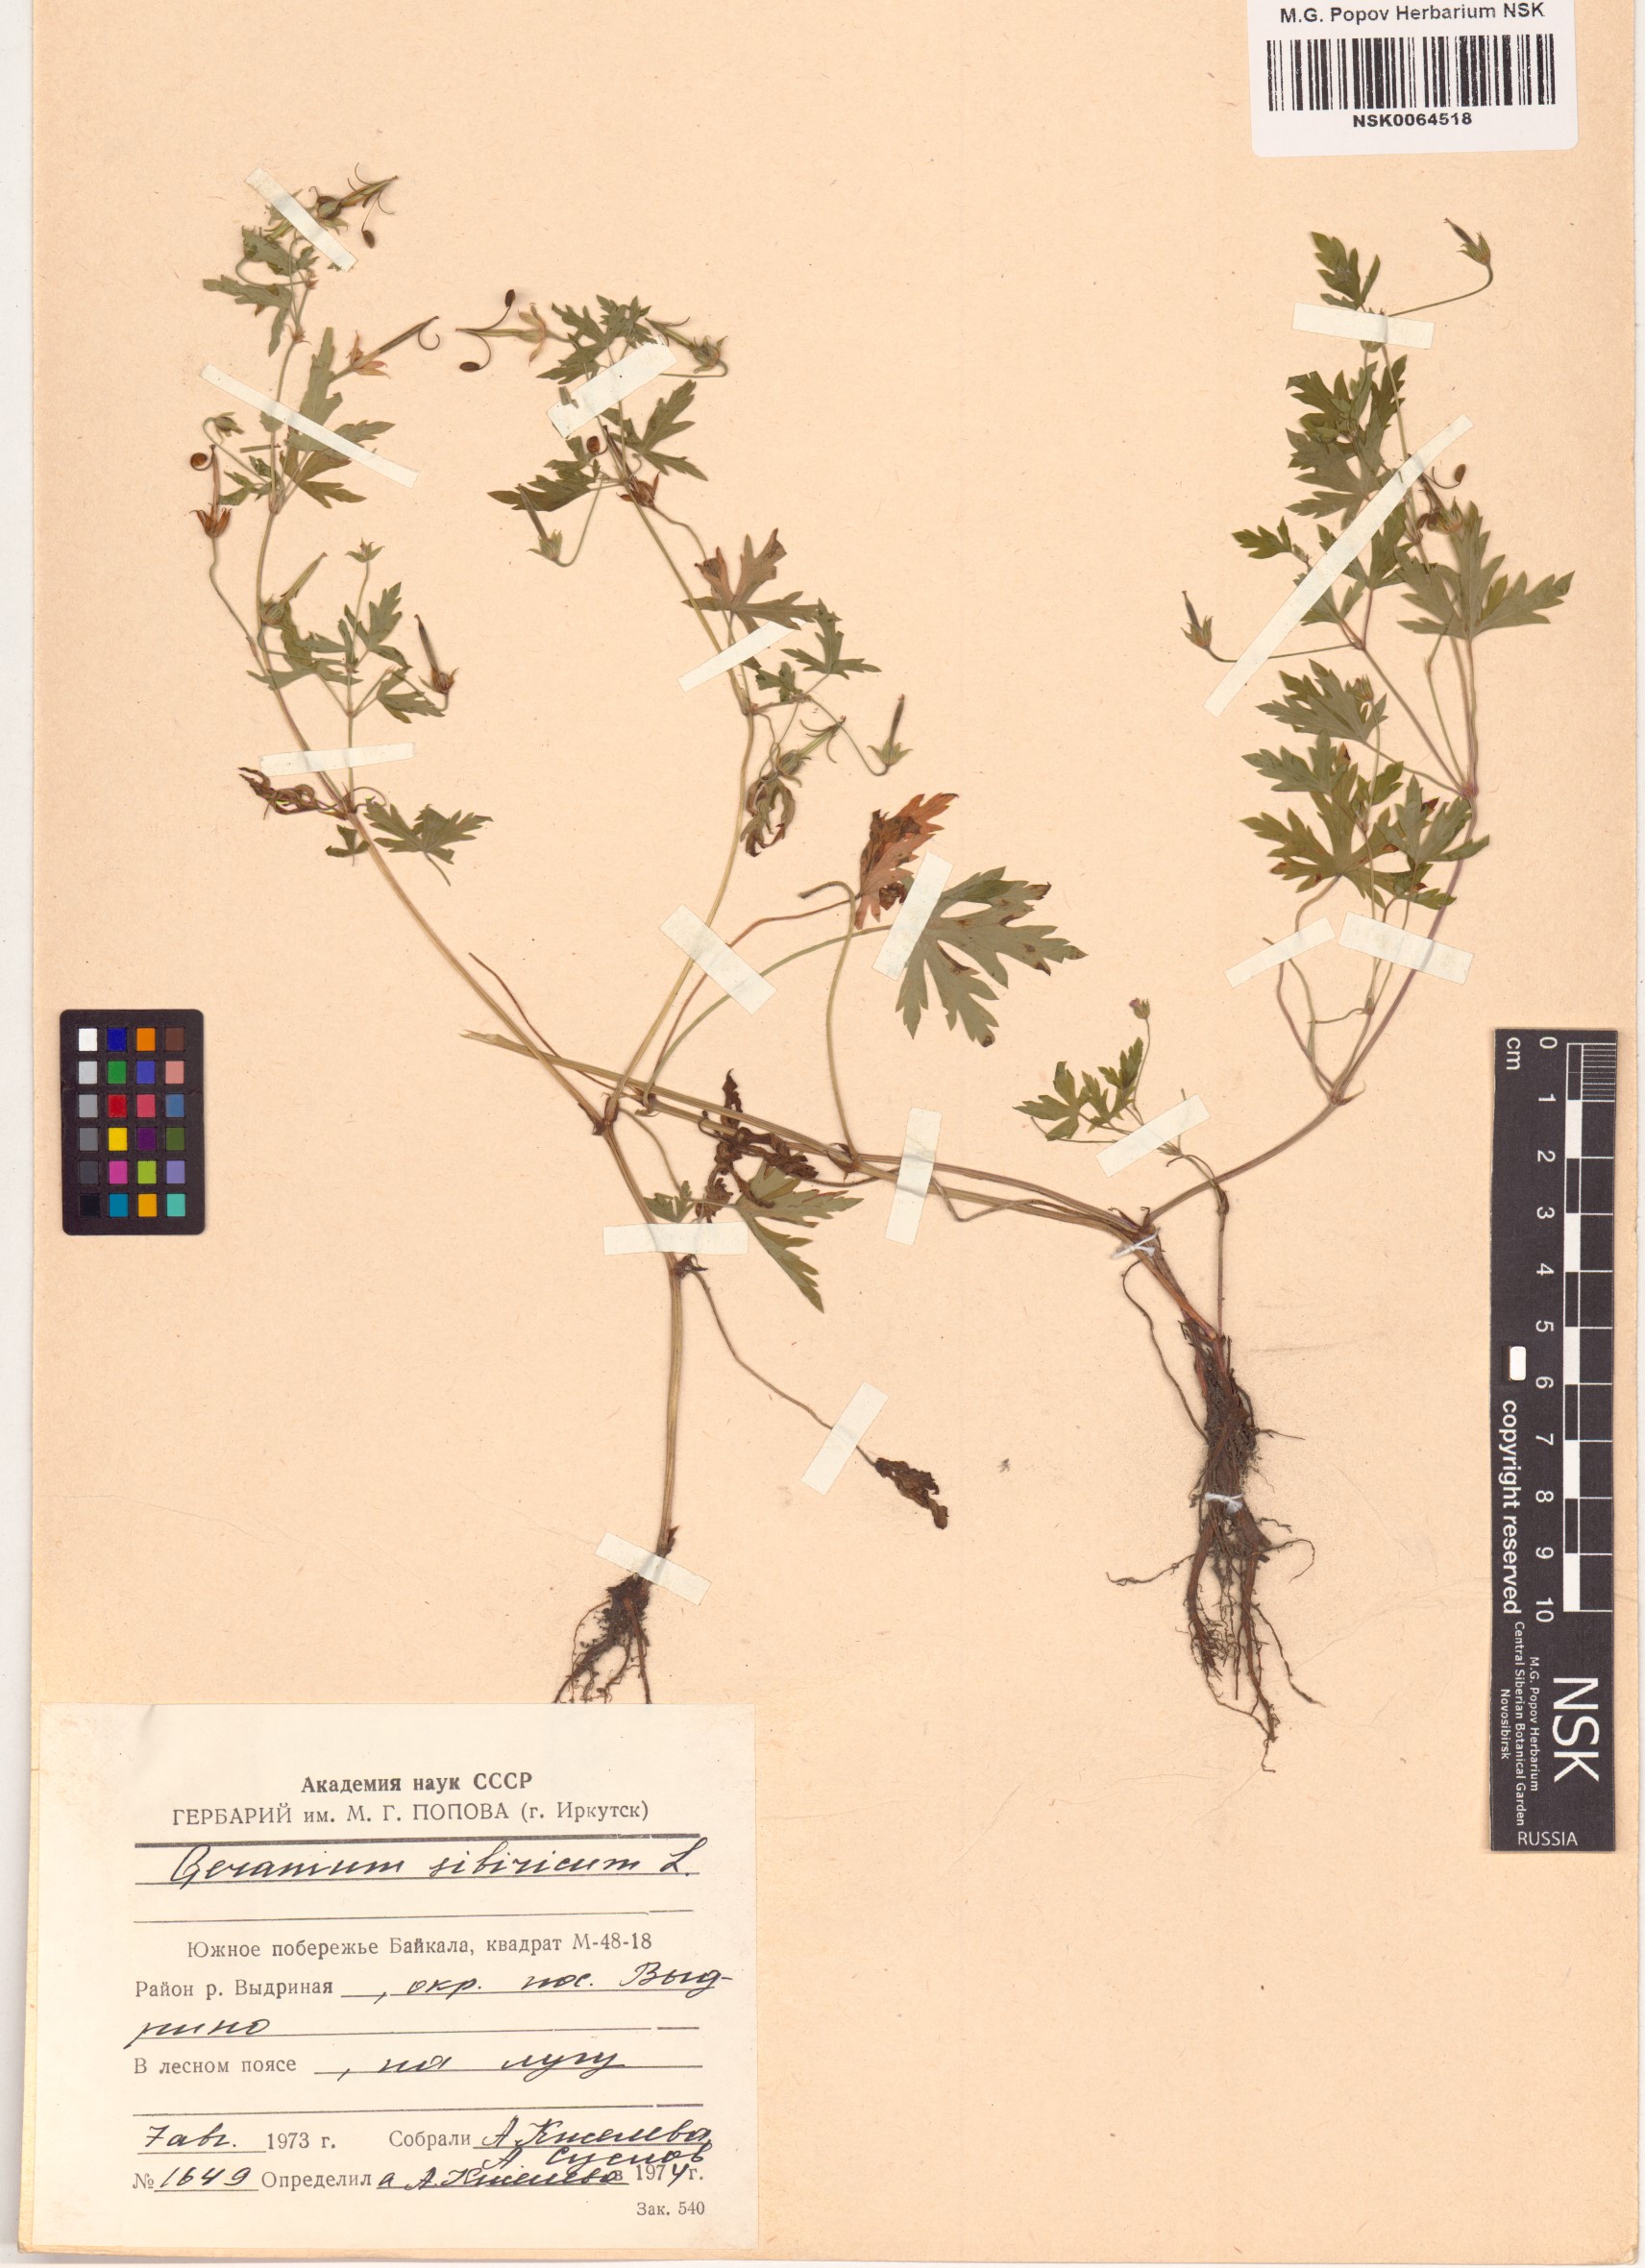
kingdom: Plantae
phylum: Tracheophyta
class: Magnoliopsida
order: Geraniales
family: Geraniaceae
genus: Geranium
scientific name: Geranium sibiricum
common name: Siberian crane's-bill
